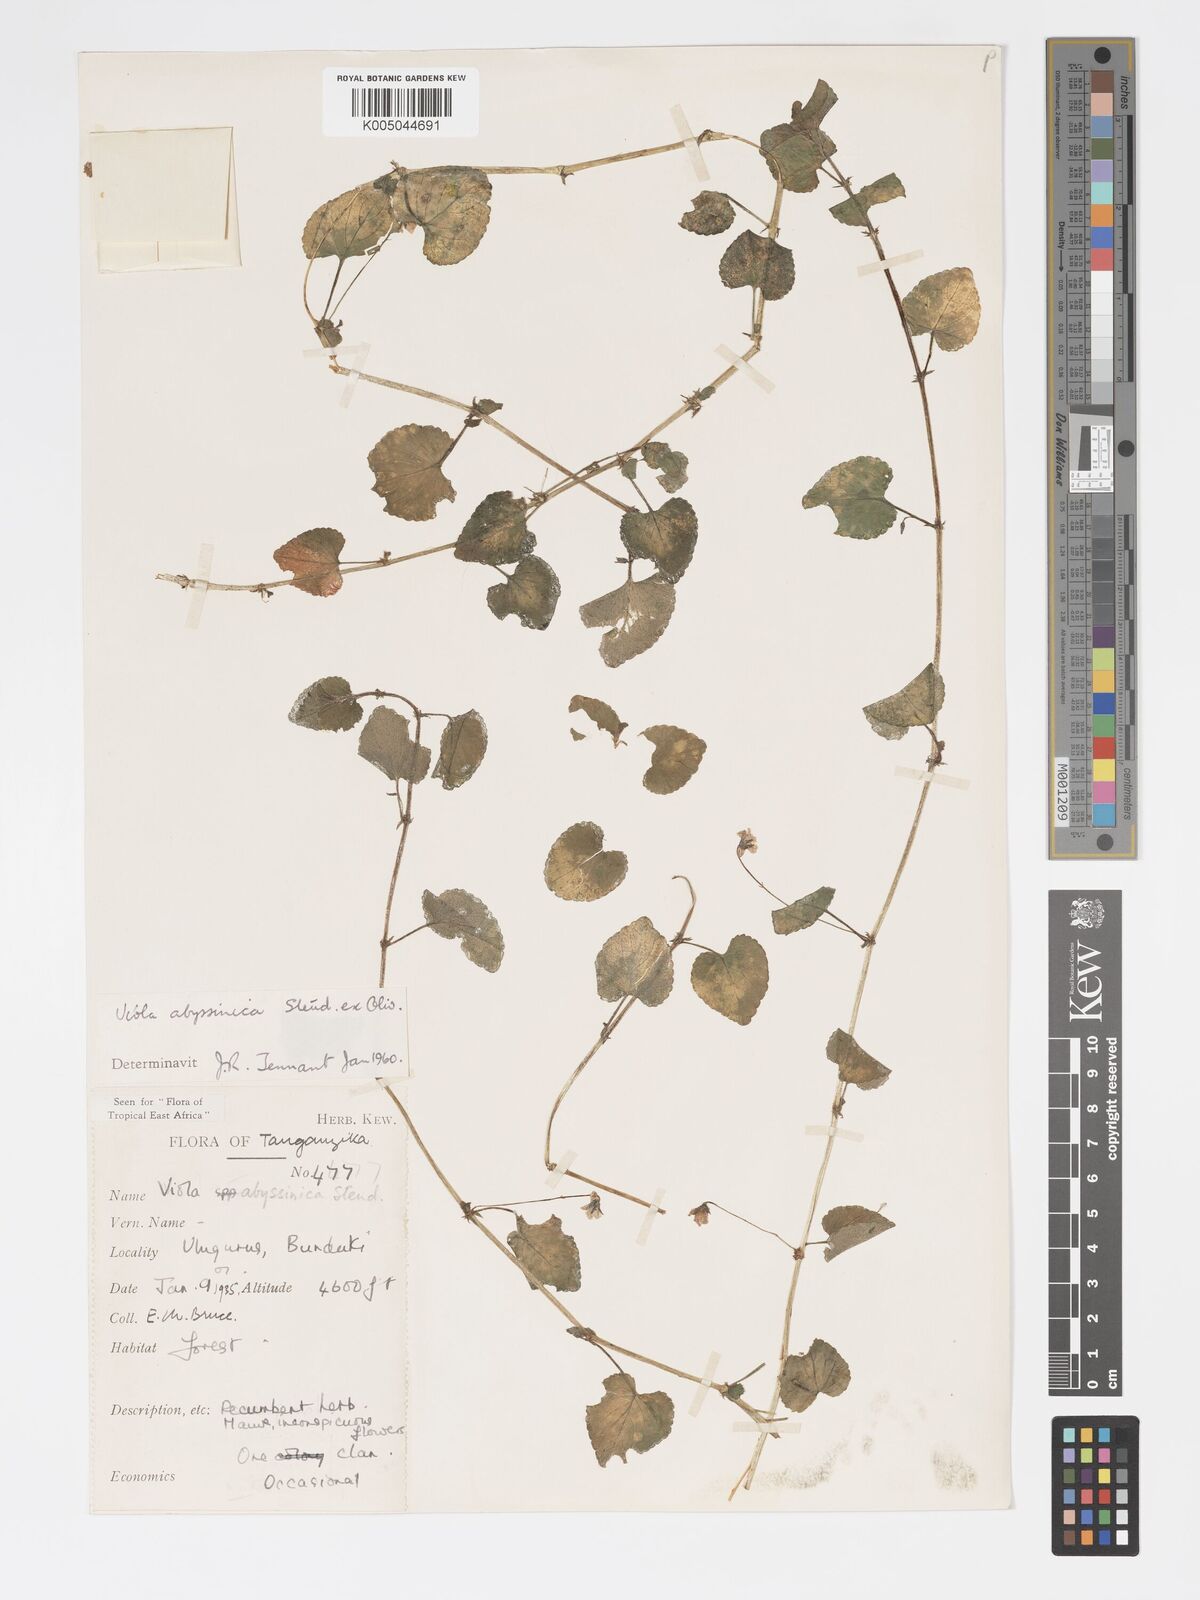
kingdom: Plantae
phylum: Tracheophyta
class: Magnoliopsida
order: Malpighiales
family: Violaceae
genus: Viola
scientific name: Viola abyssinica
